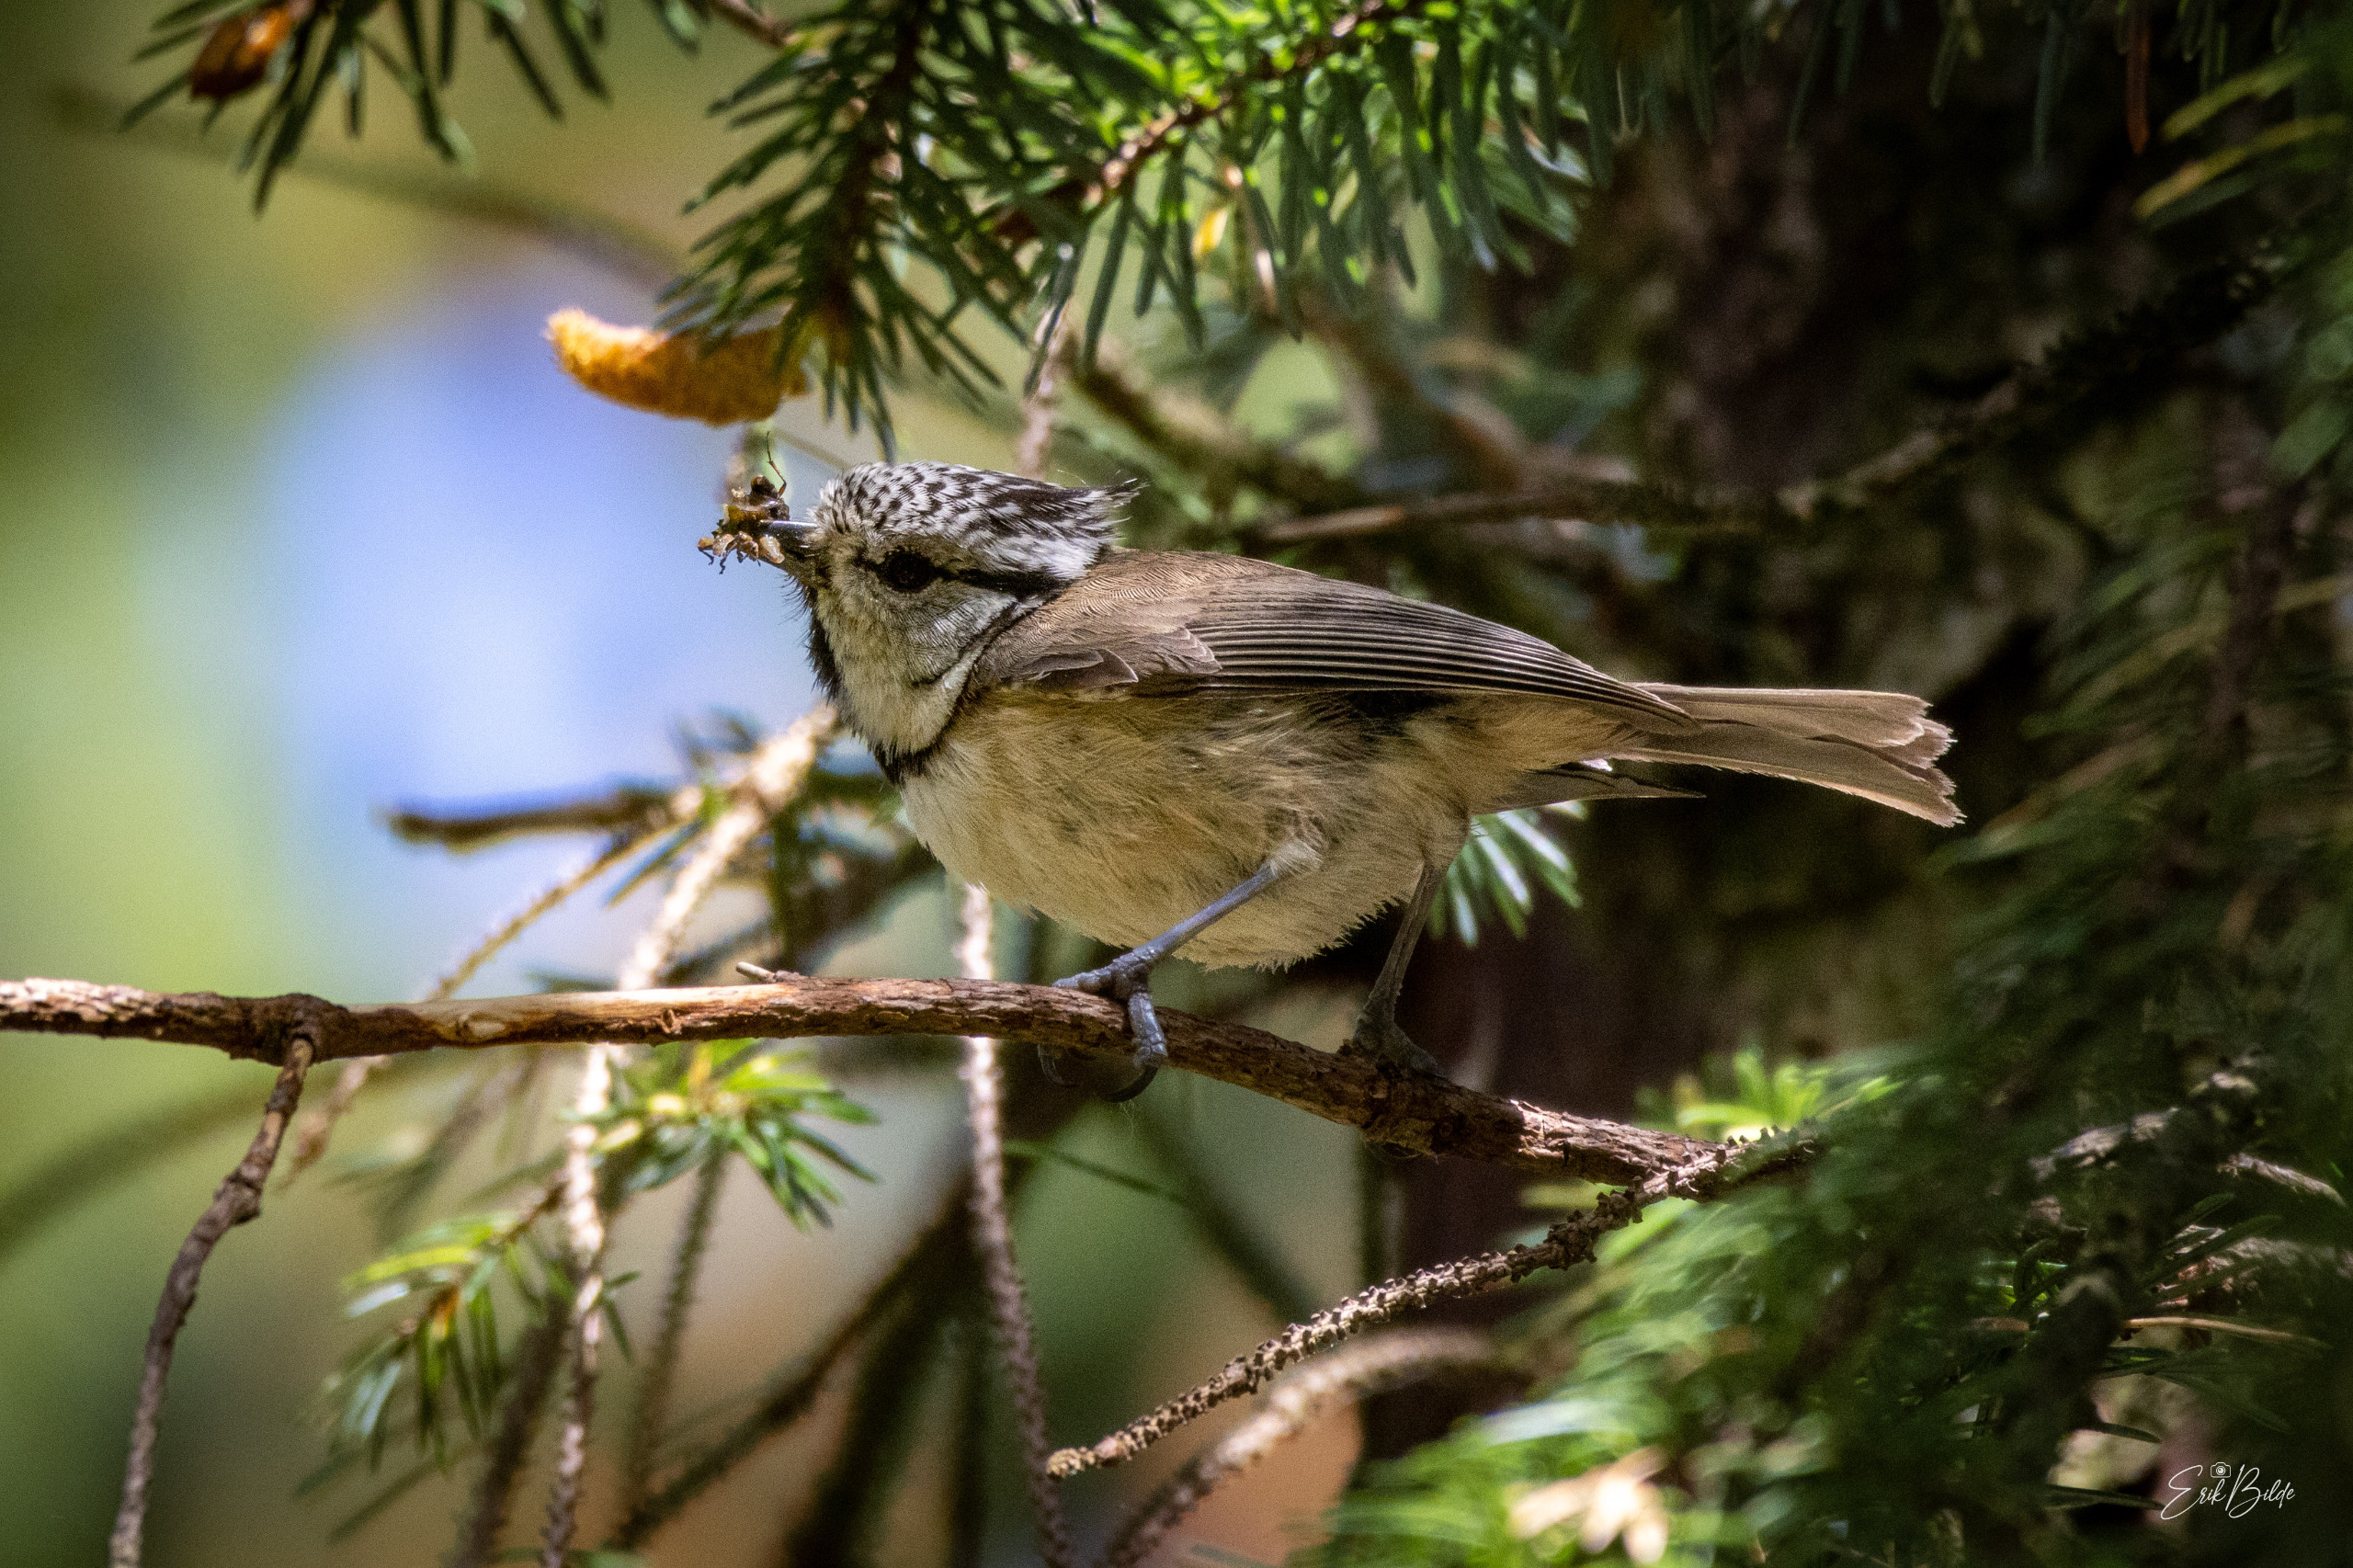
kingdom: Animalia
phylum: Chordata
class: Aves
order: Passeriformes
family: Paridae
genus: Lophophanes
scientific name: Lophophanes cristatus
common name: Topmejse
